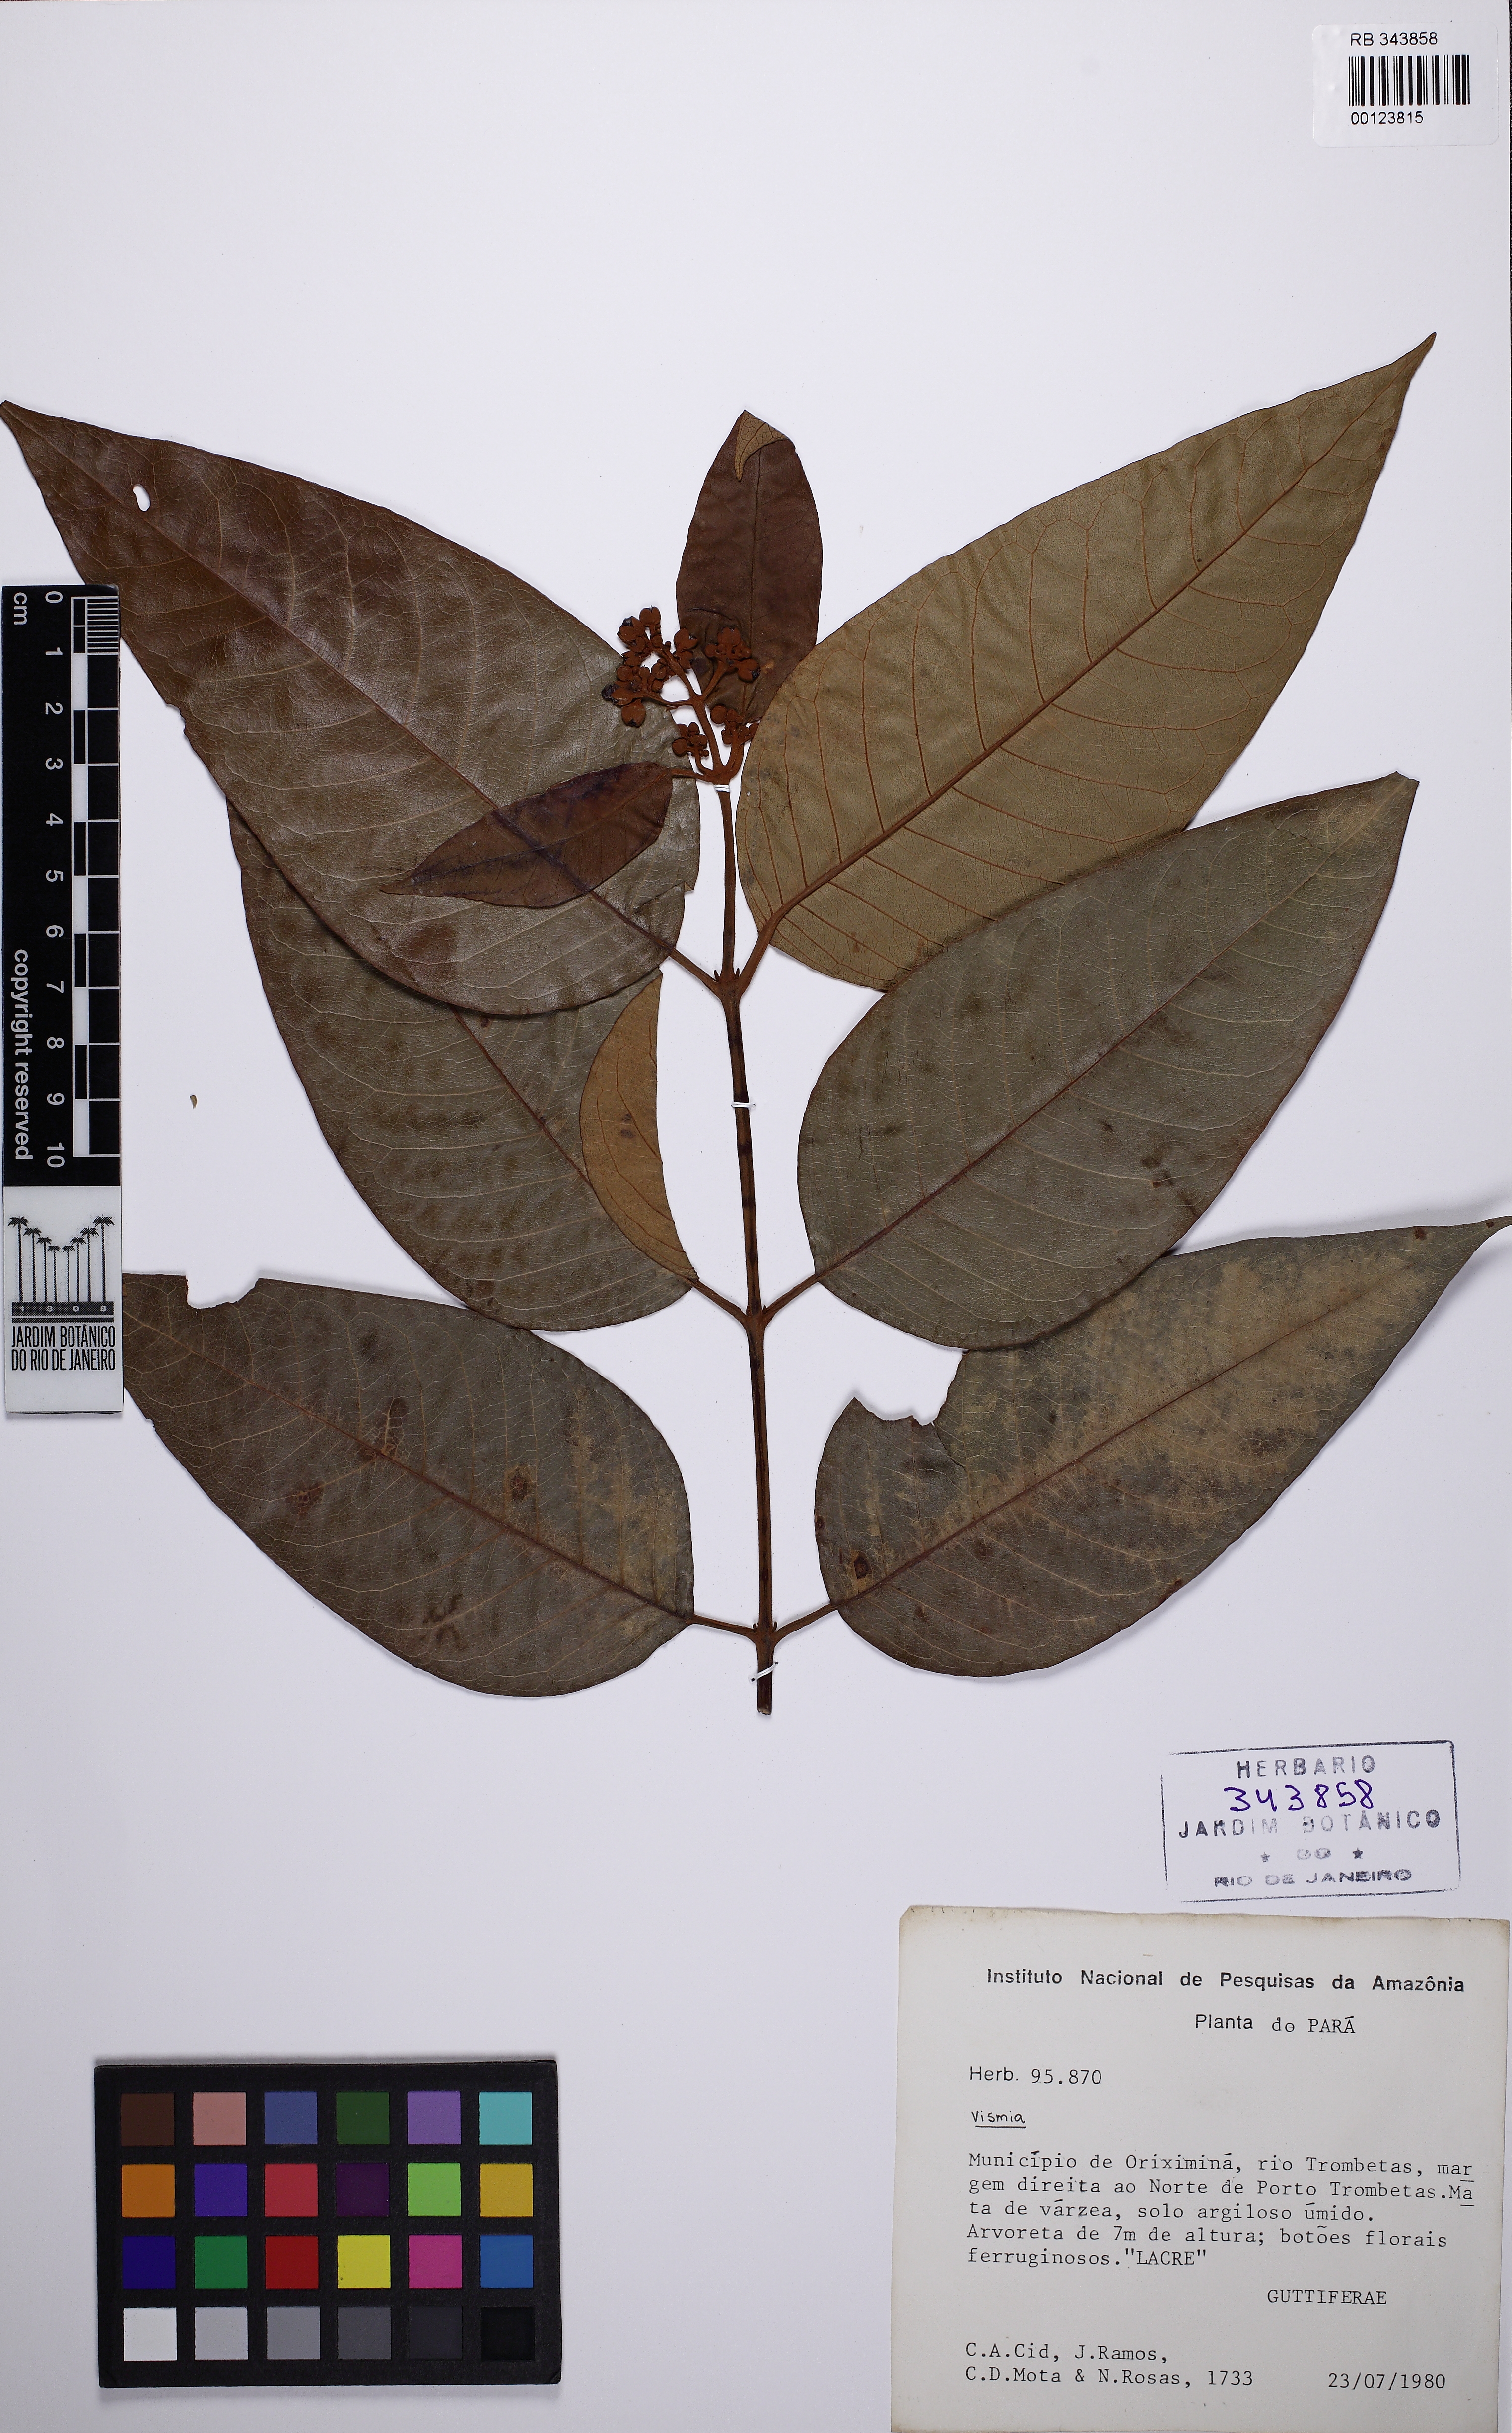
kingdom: Plantae
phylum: Tracheophyta
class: Magnoliopsida
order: Malpighiales
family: Hypericaceae
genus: Vismia
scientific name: Vismia
